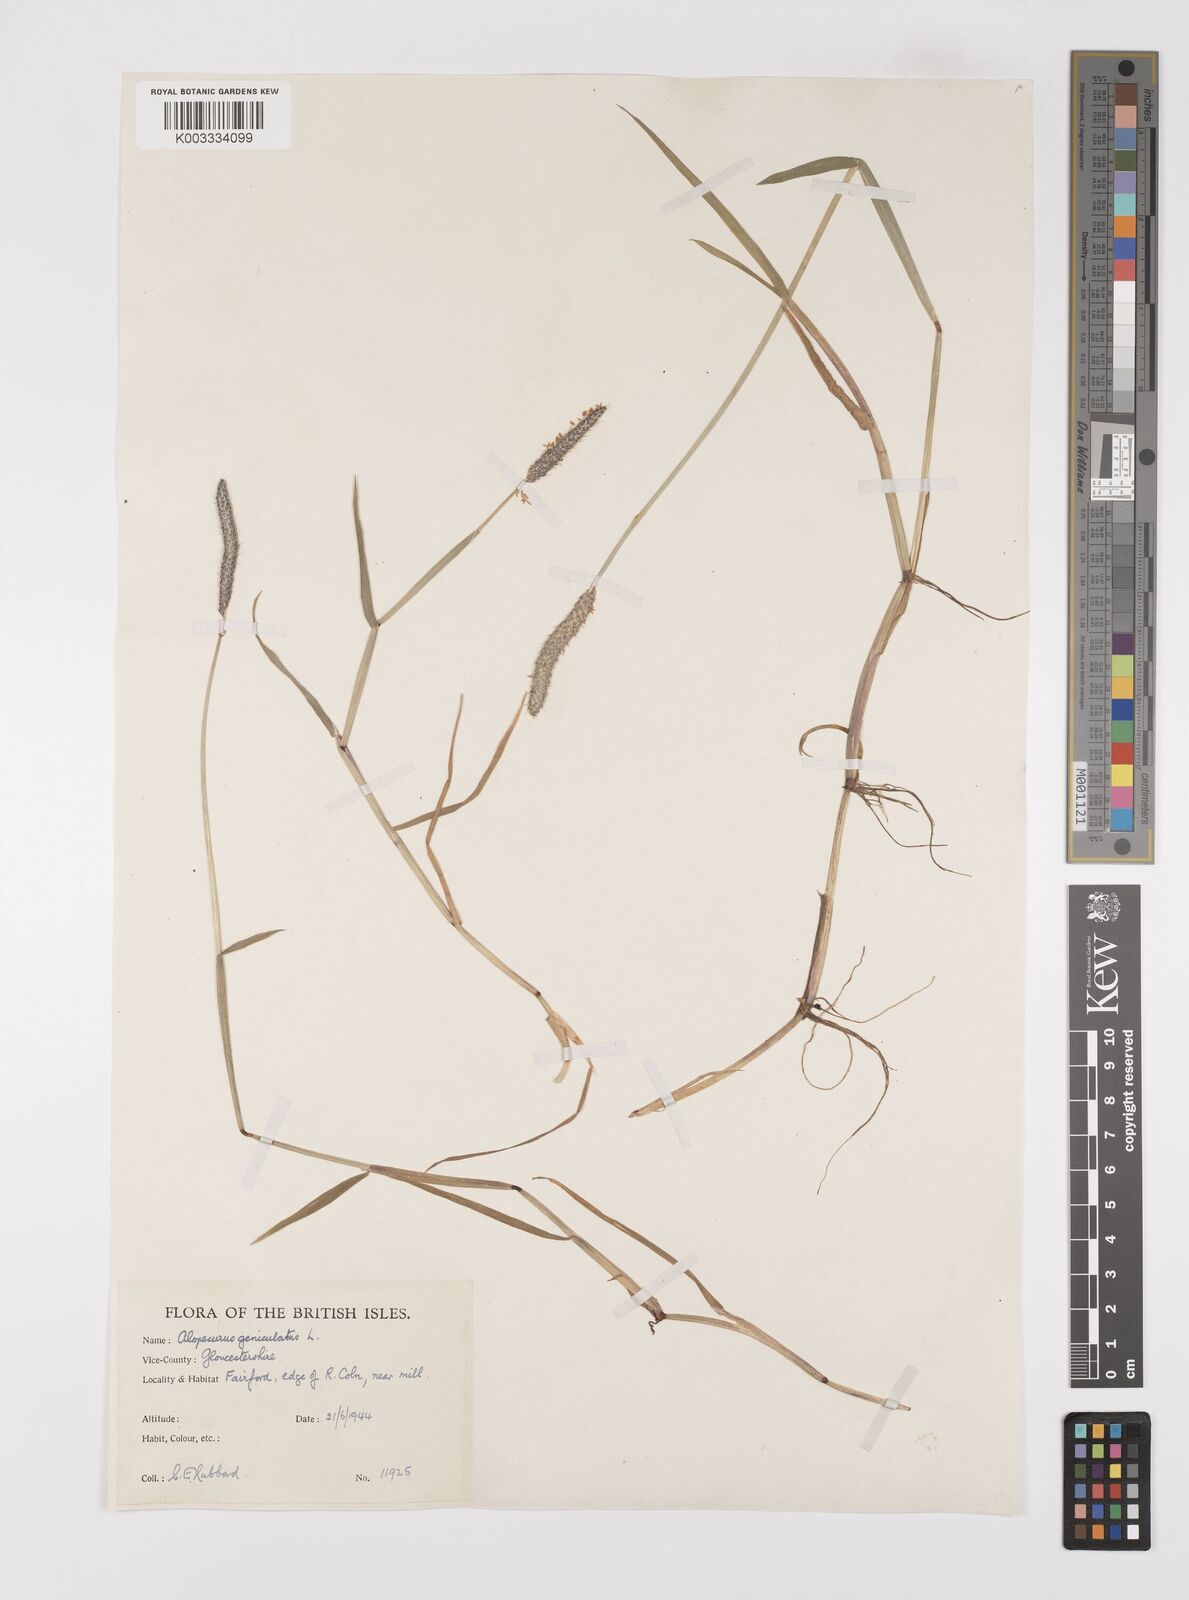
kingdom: Plantae
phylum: Tracheophyta
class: Liliopsida
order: Poales
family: Poaceae
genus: Alopecurus
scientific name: Alopecurus geniculatus
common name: Water foxtail
